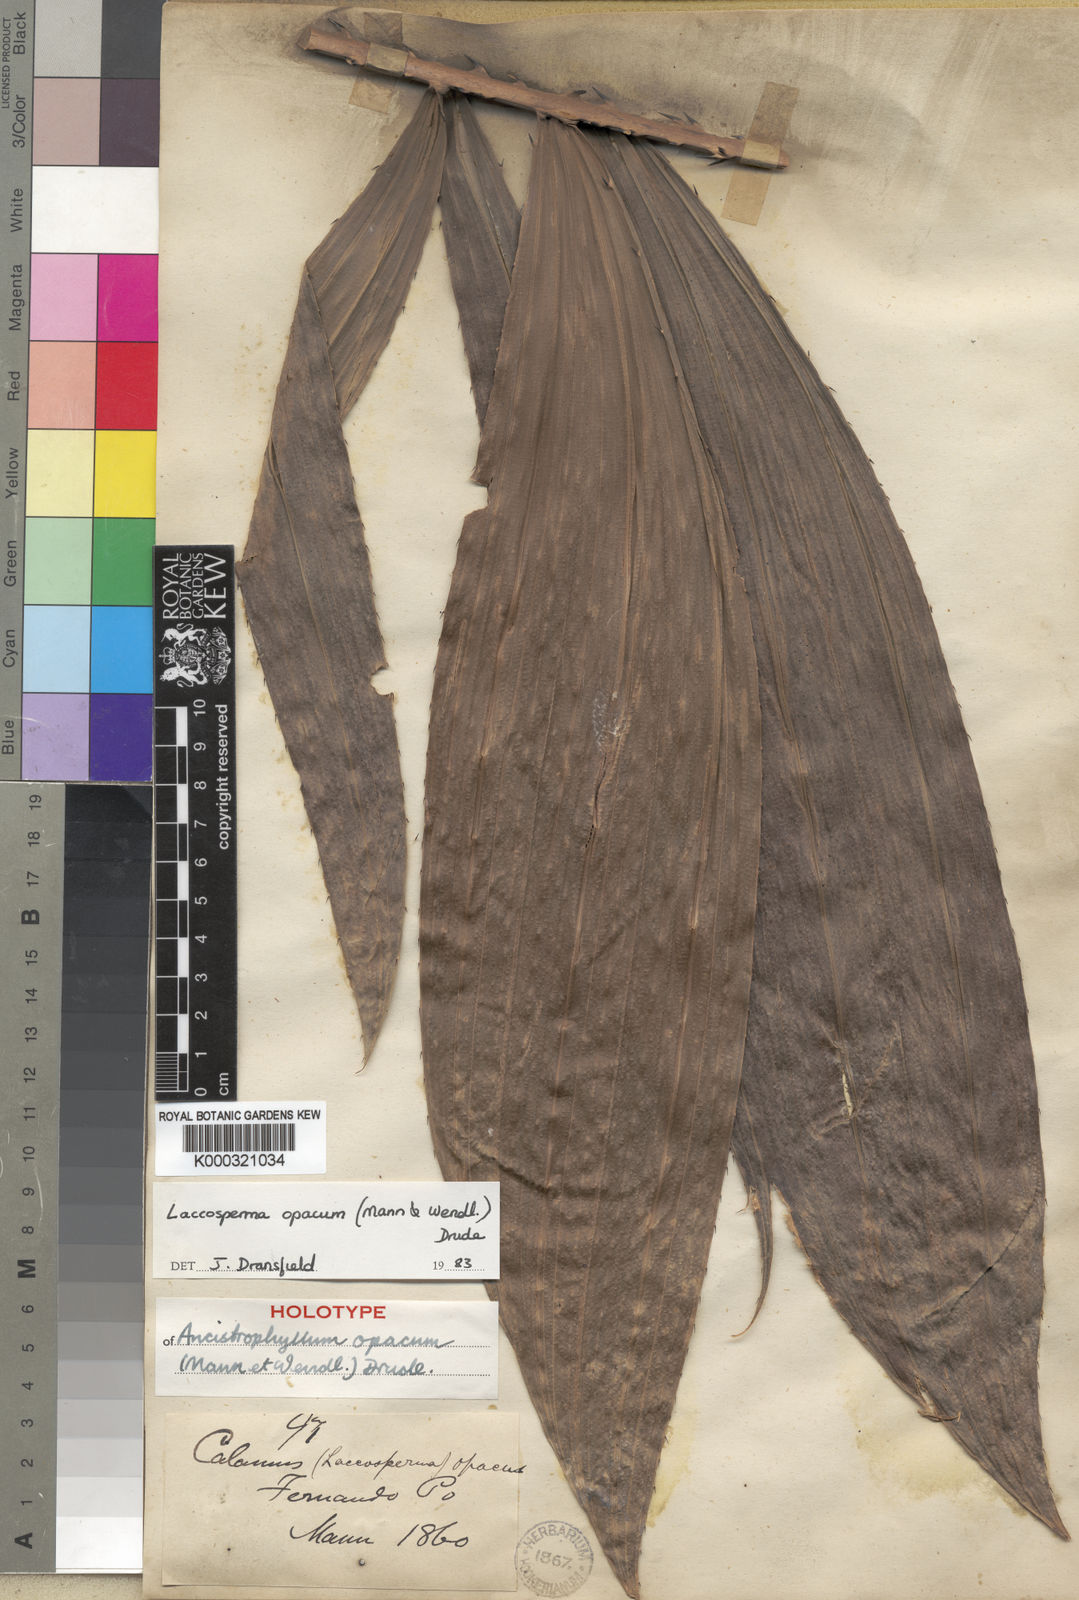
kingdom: Plantae
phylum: Tracheophyta
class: Liliopsida
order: Arecales
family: Arecaceae
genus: Laccosperma
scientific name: Laccosperma opacum
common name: Rattan
